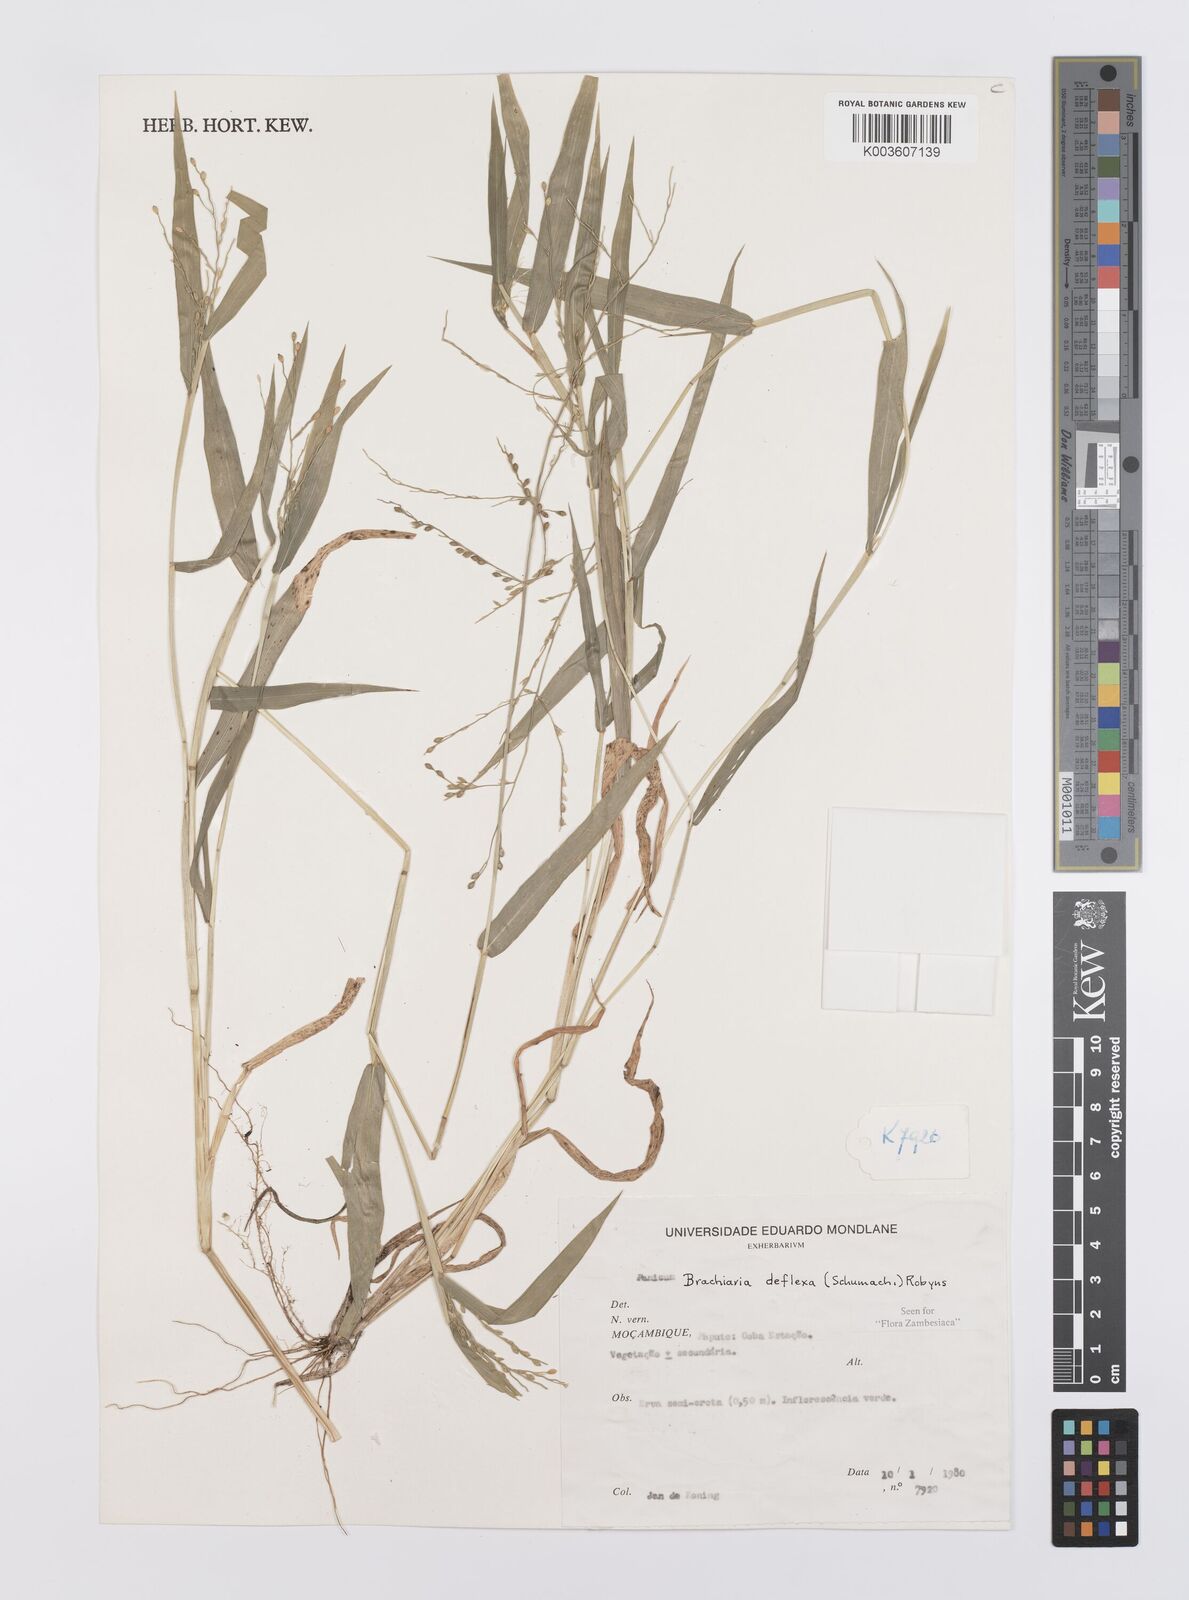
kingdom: Plantae
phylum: Tracheophyta
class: Liliopsida
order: Poales
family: Poaceae
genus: Urochloa
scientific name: Urochloa deflexa
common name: Guinea millet
